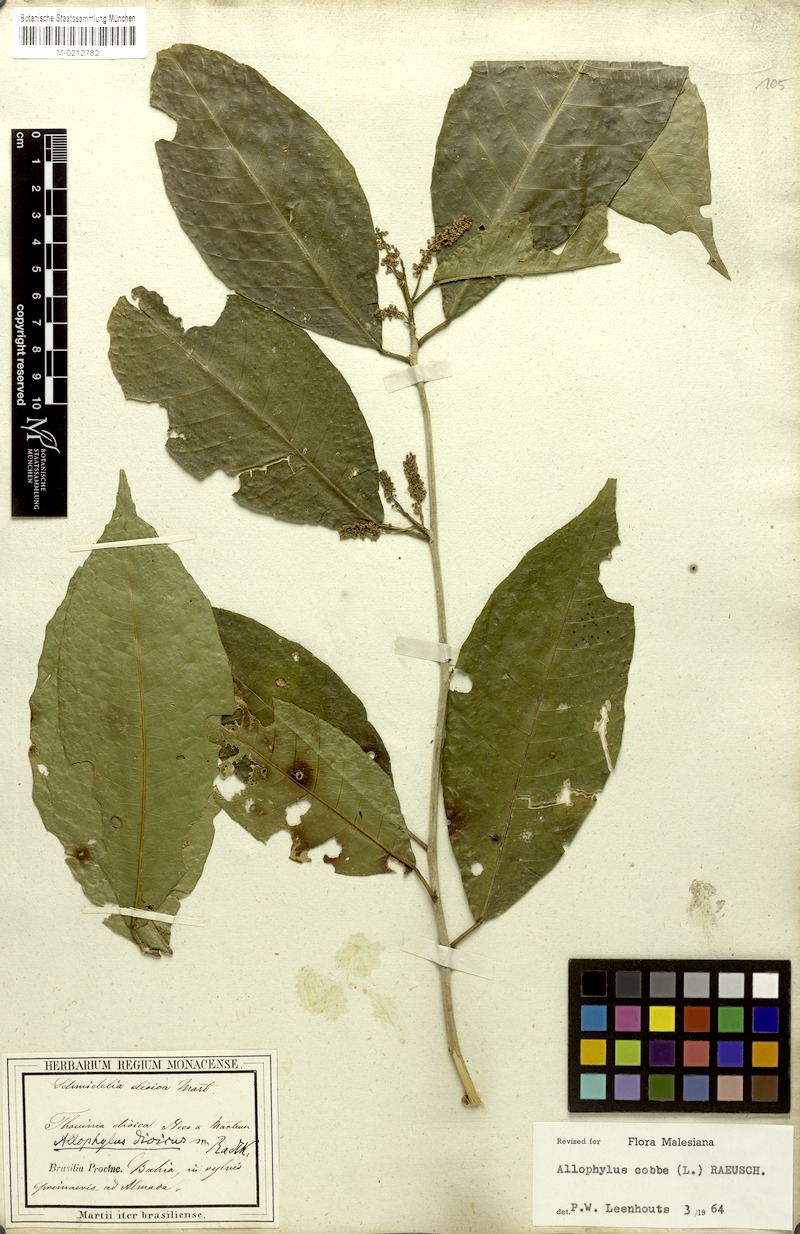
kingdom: Plantae
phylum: Tracheophyta
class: Magnoliopsida
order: Sapindales
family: Sapindaceae
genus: Allophylus
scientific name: Allophylus dioicus
